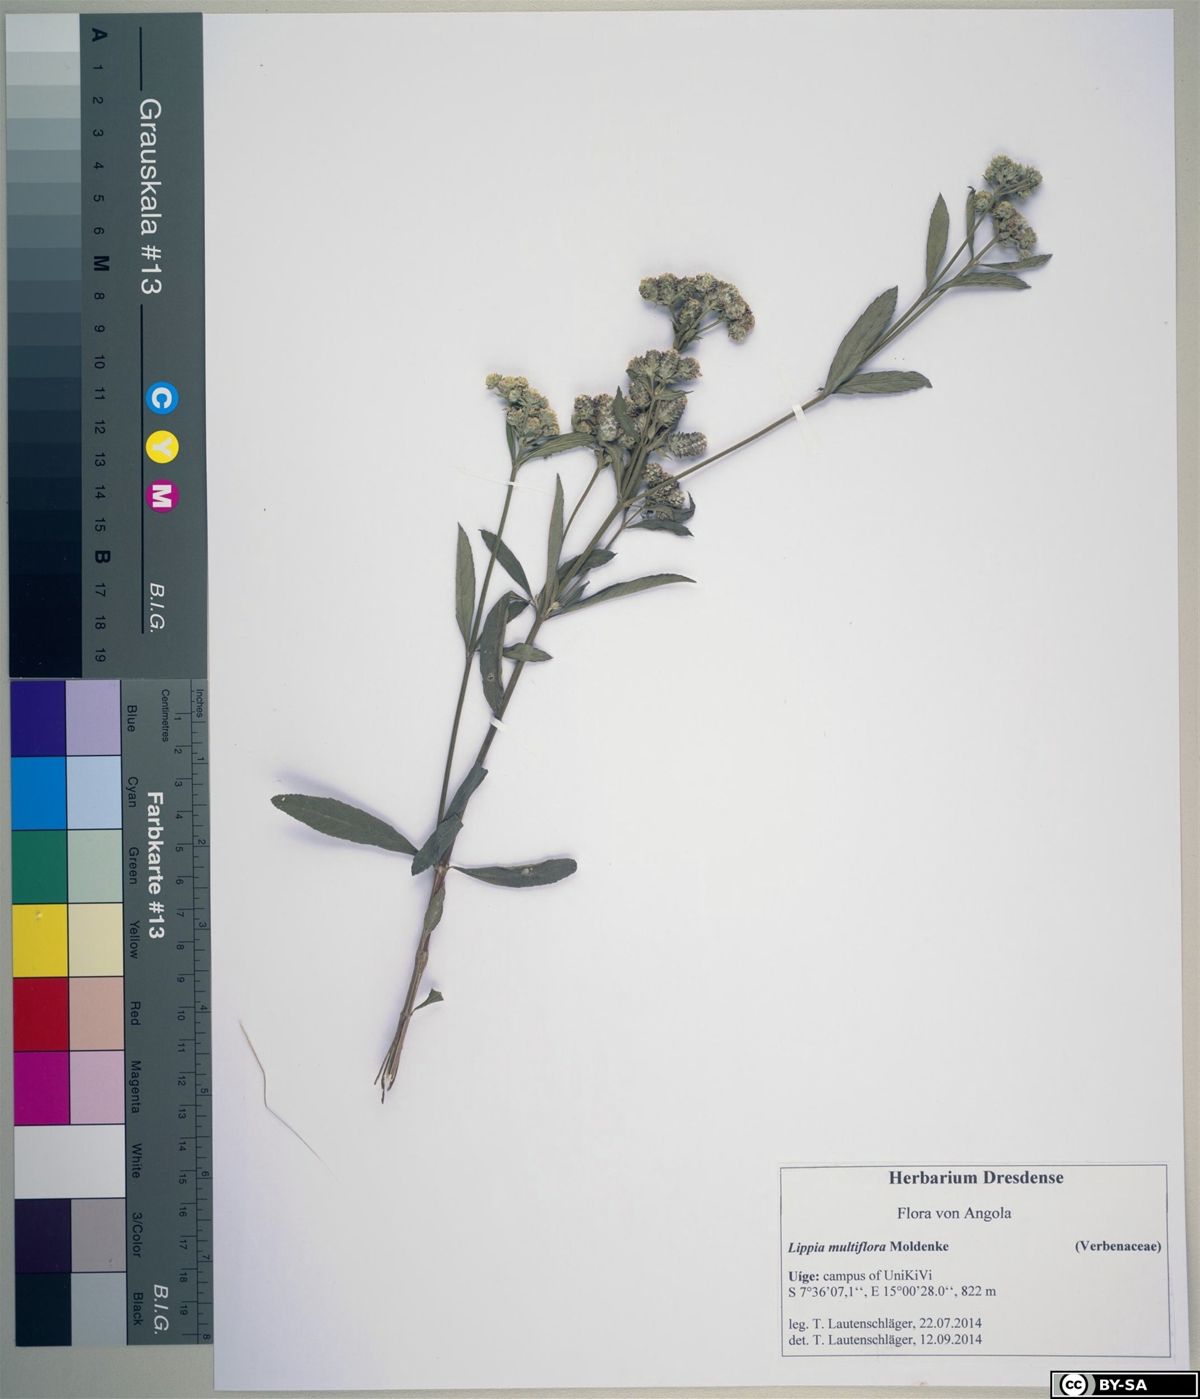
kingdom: Plantae
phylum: Tracheophyta
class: Magnoliopsida
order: Lamiales
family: Verbenaceae
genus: Lippia
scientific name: Lippia multiflora
